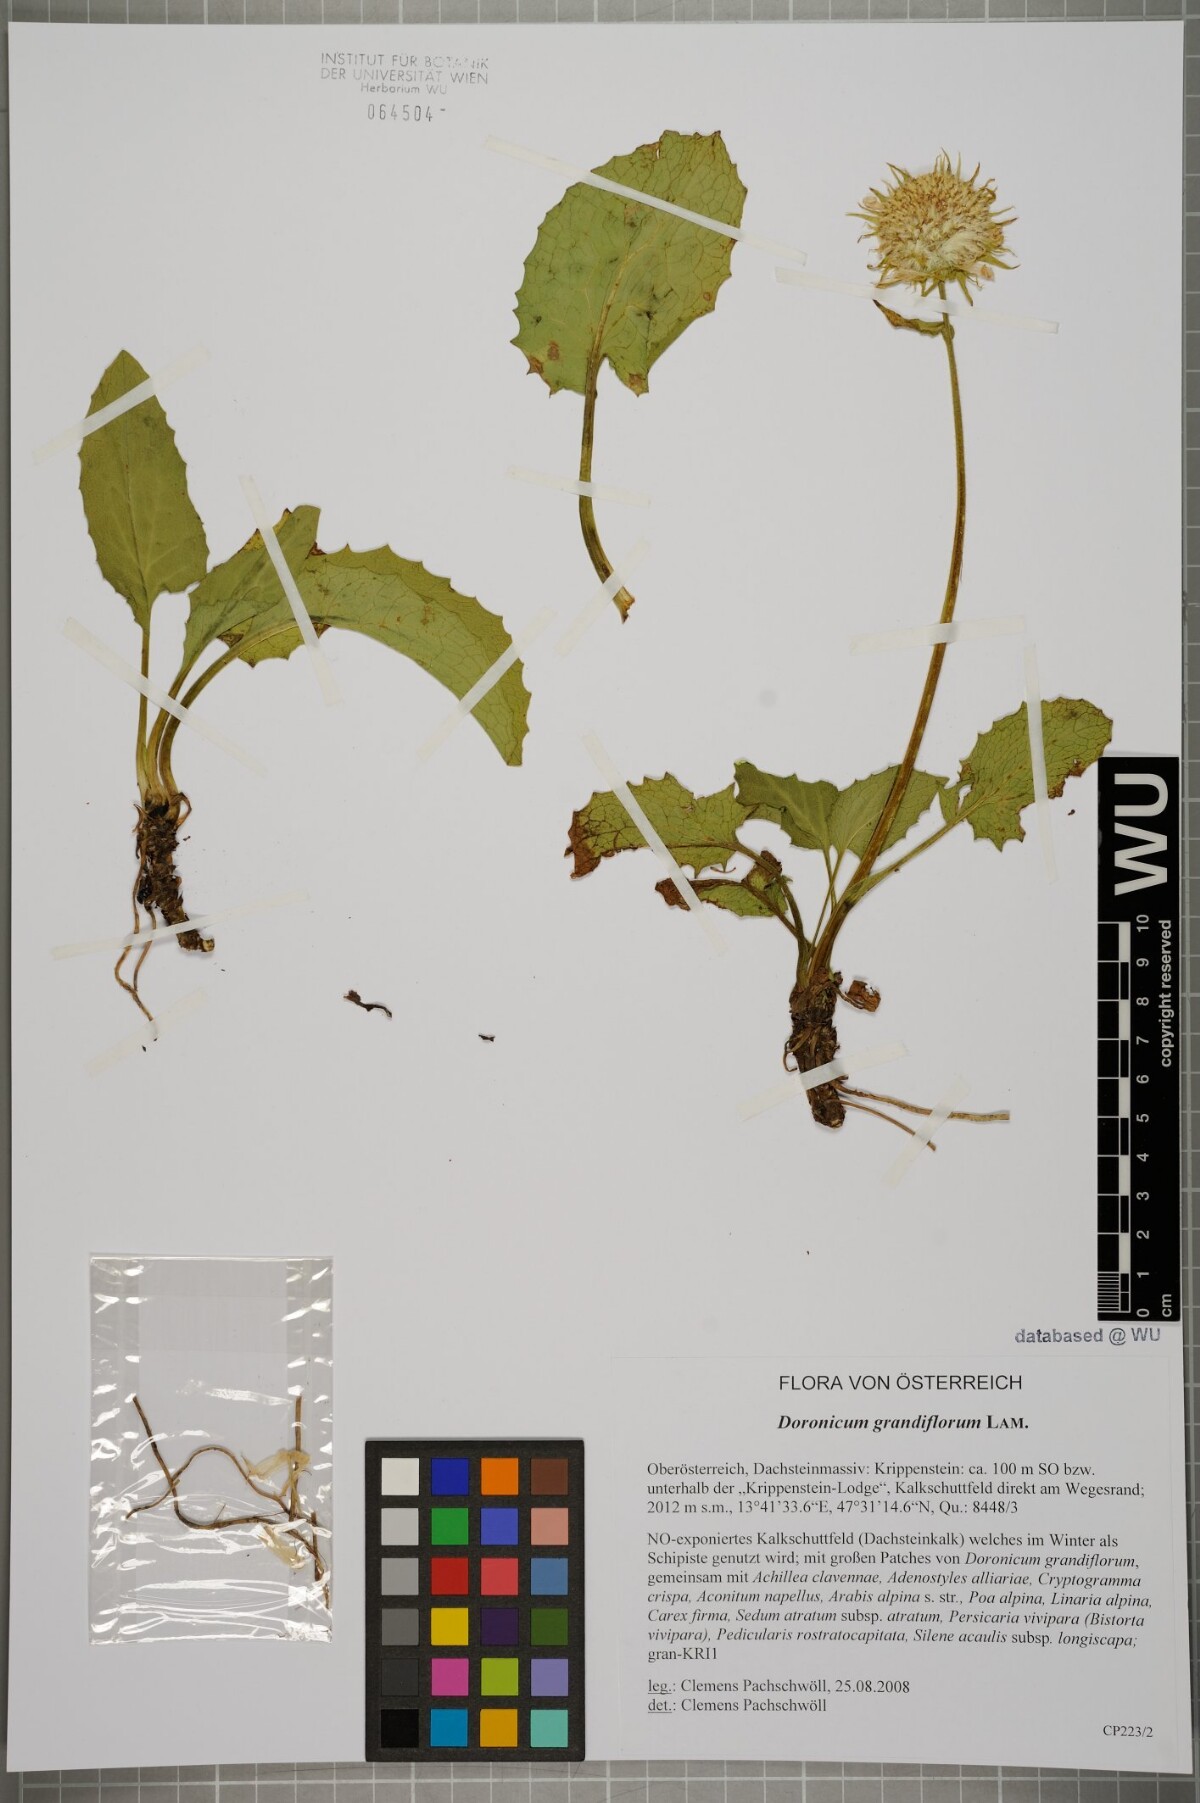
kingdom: Plantae
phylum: Tracheophyta
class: Magnoliopsida
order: Asterales
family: Asteraceae
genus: Doronicum
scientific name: Doronicum grandiflorum
